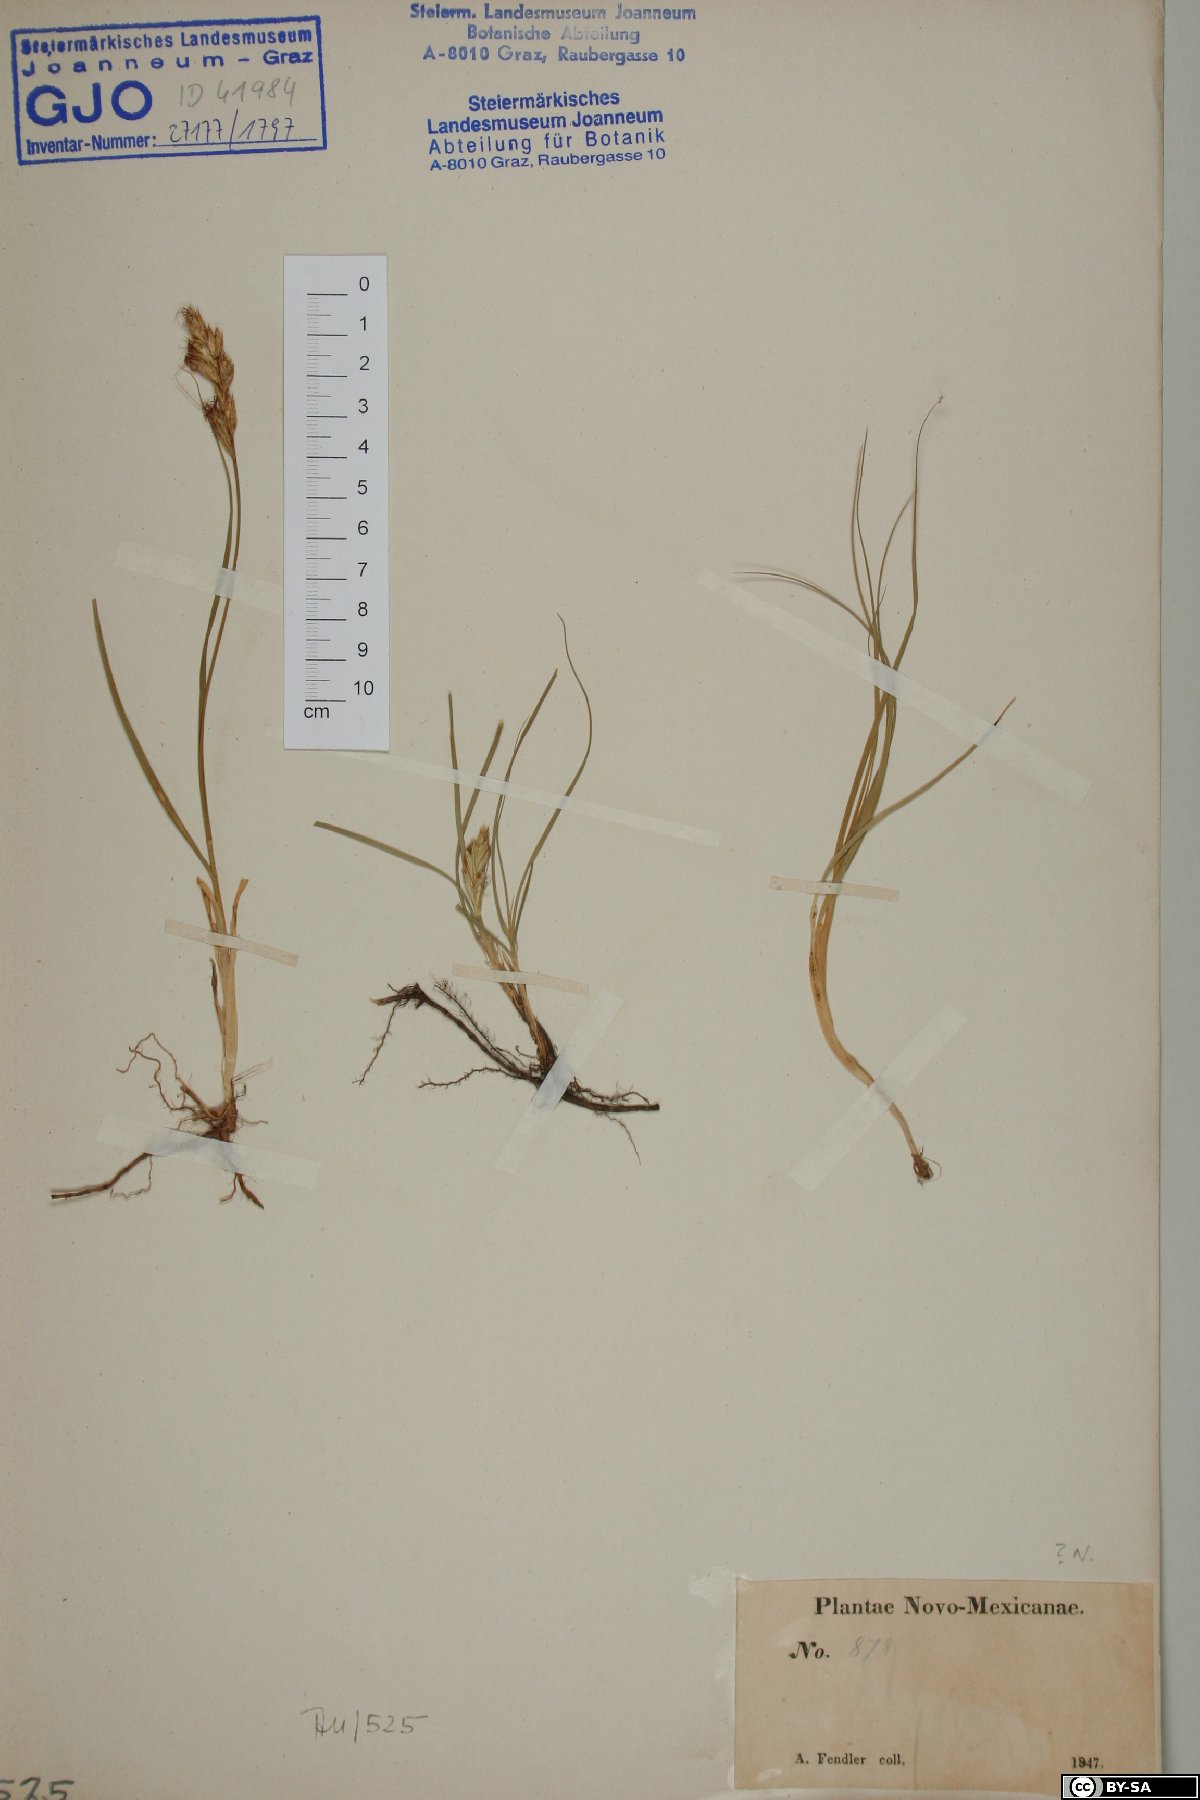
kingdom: Plantae
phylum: Tracheophyta
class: Liliopsida
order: Poales
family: Cyperaceae
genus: Carex
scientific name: Carex
